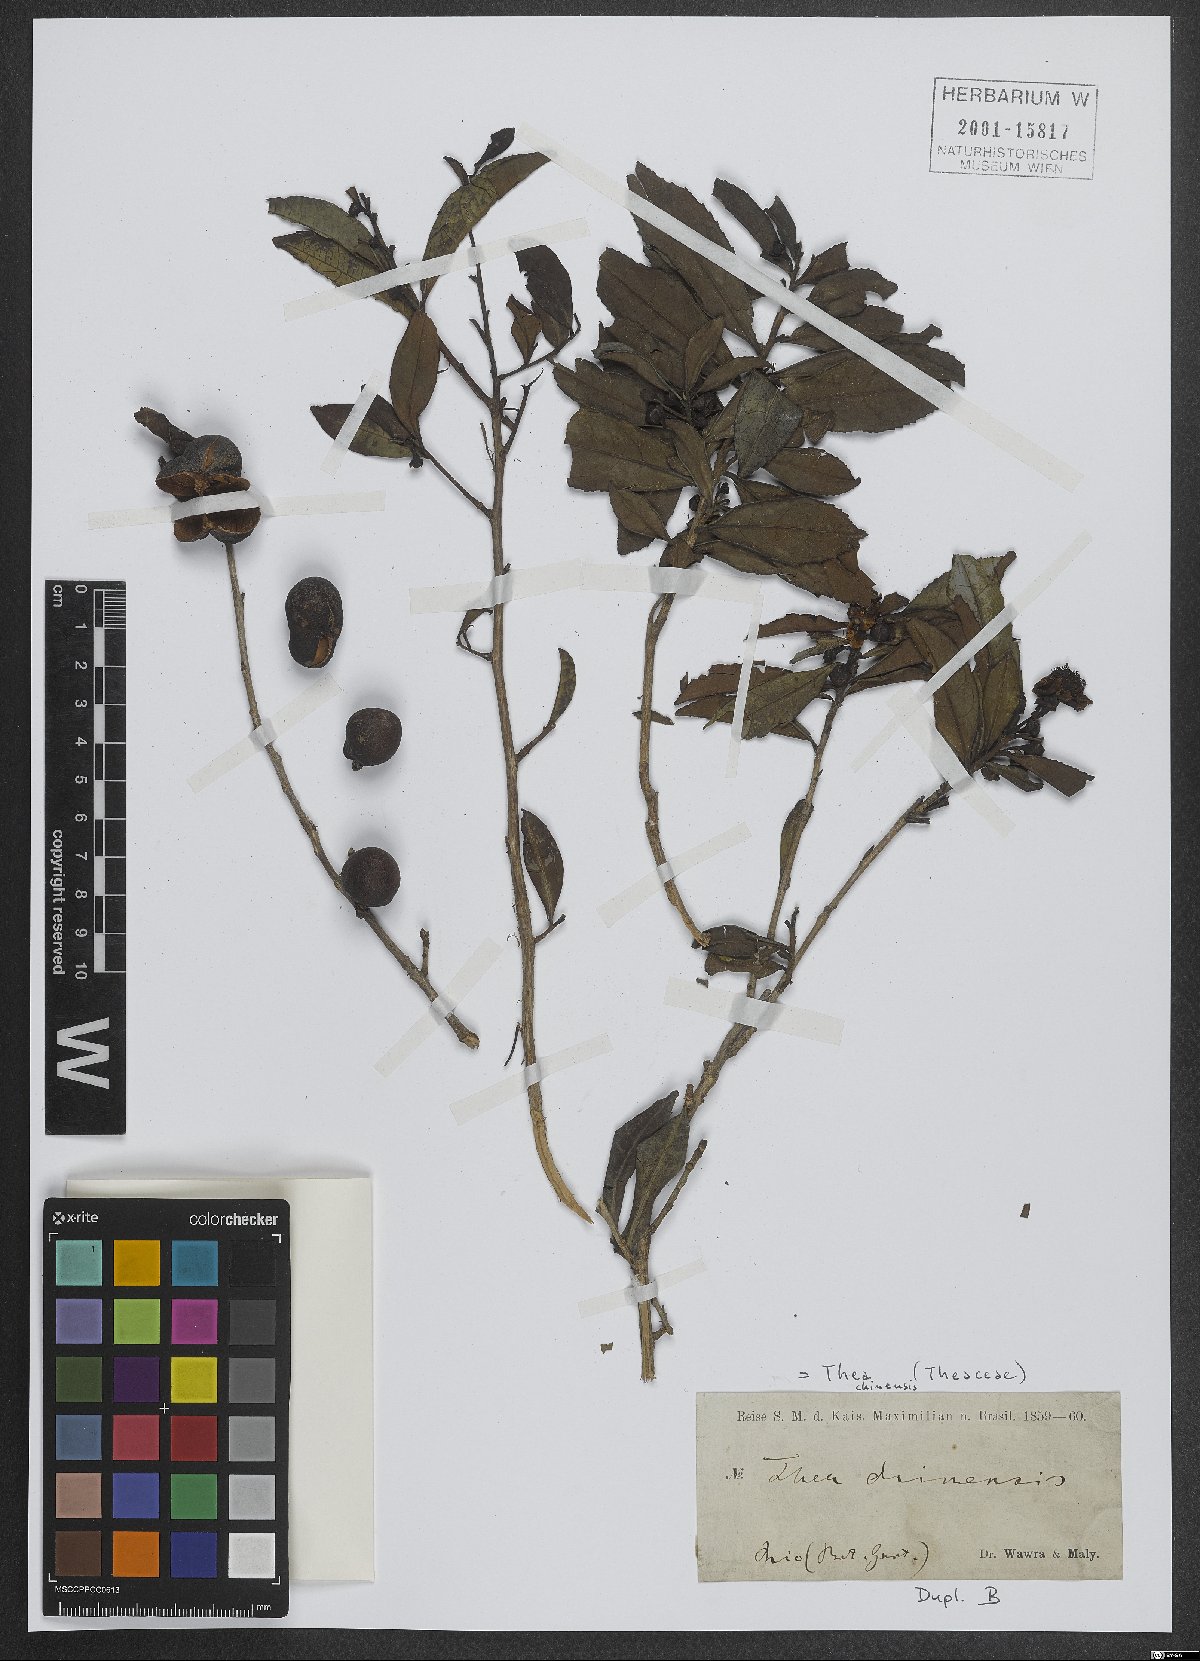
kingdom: Plantae
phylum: Tracheophyta
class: Magnoliopsida
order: Ericales
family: Theaceae
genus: Camellia
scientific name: Camellia sinensis
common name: Tea
